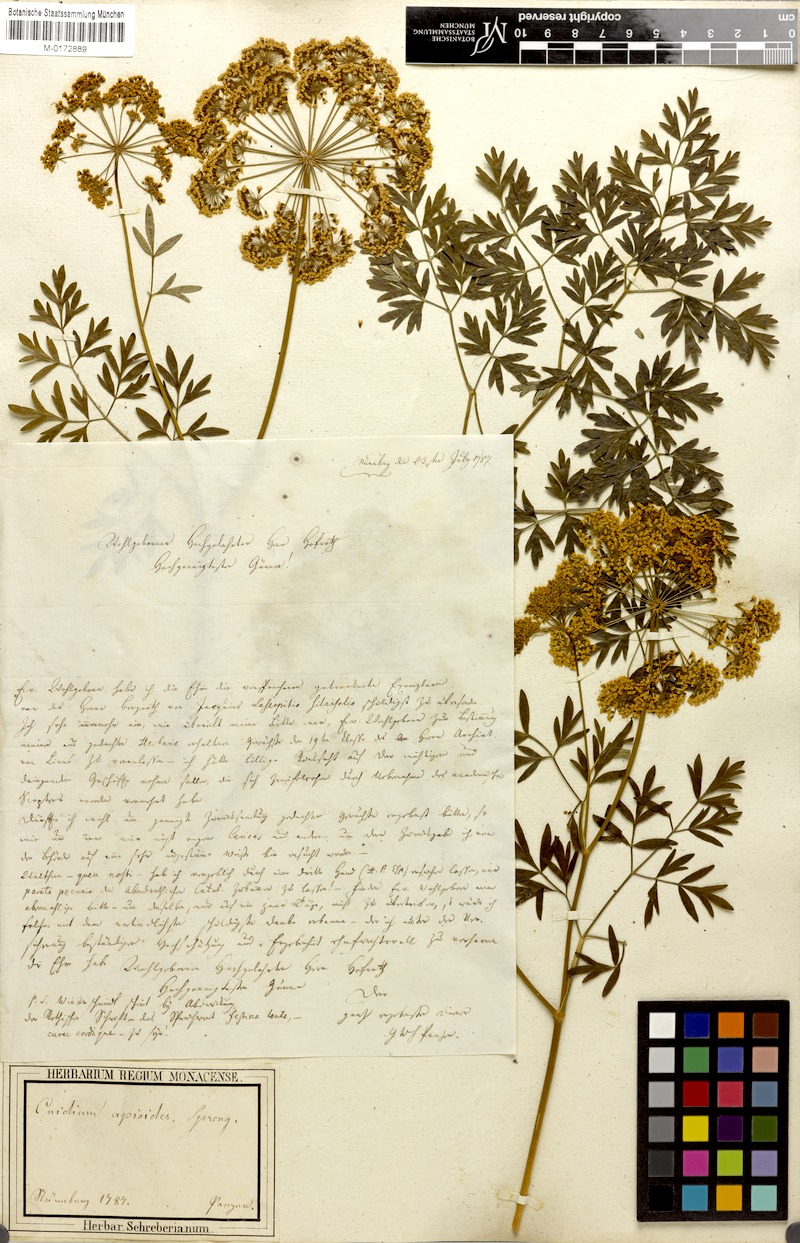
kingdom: Plantae
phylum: Tracheophyta
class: Magnoliopsida
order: Apiales
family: Apiaceae
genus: Katapsuxis
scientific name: Katapsuxis silaifolia
